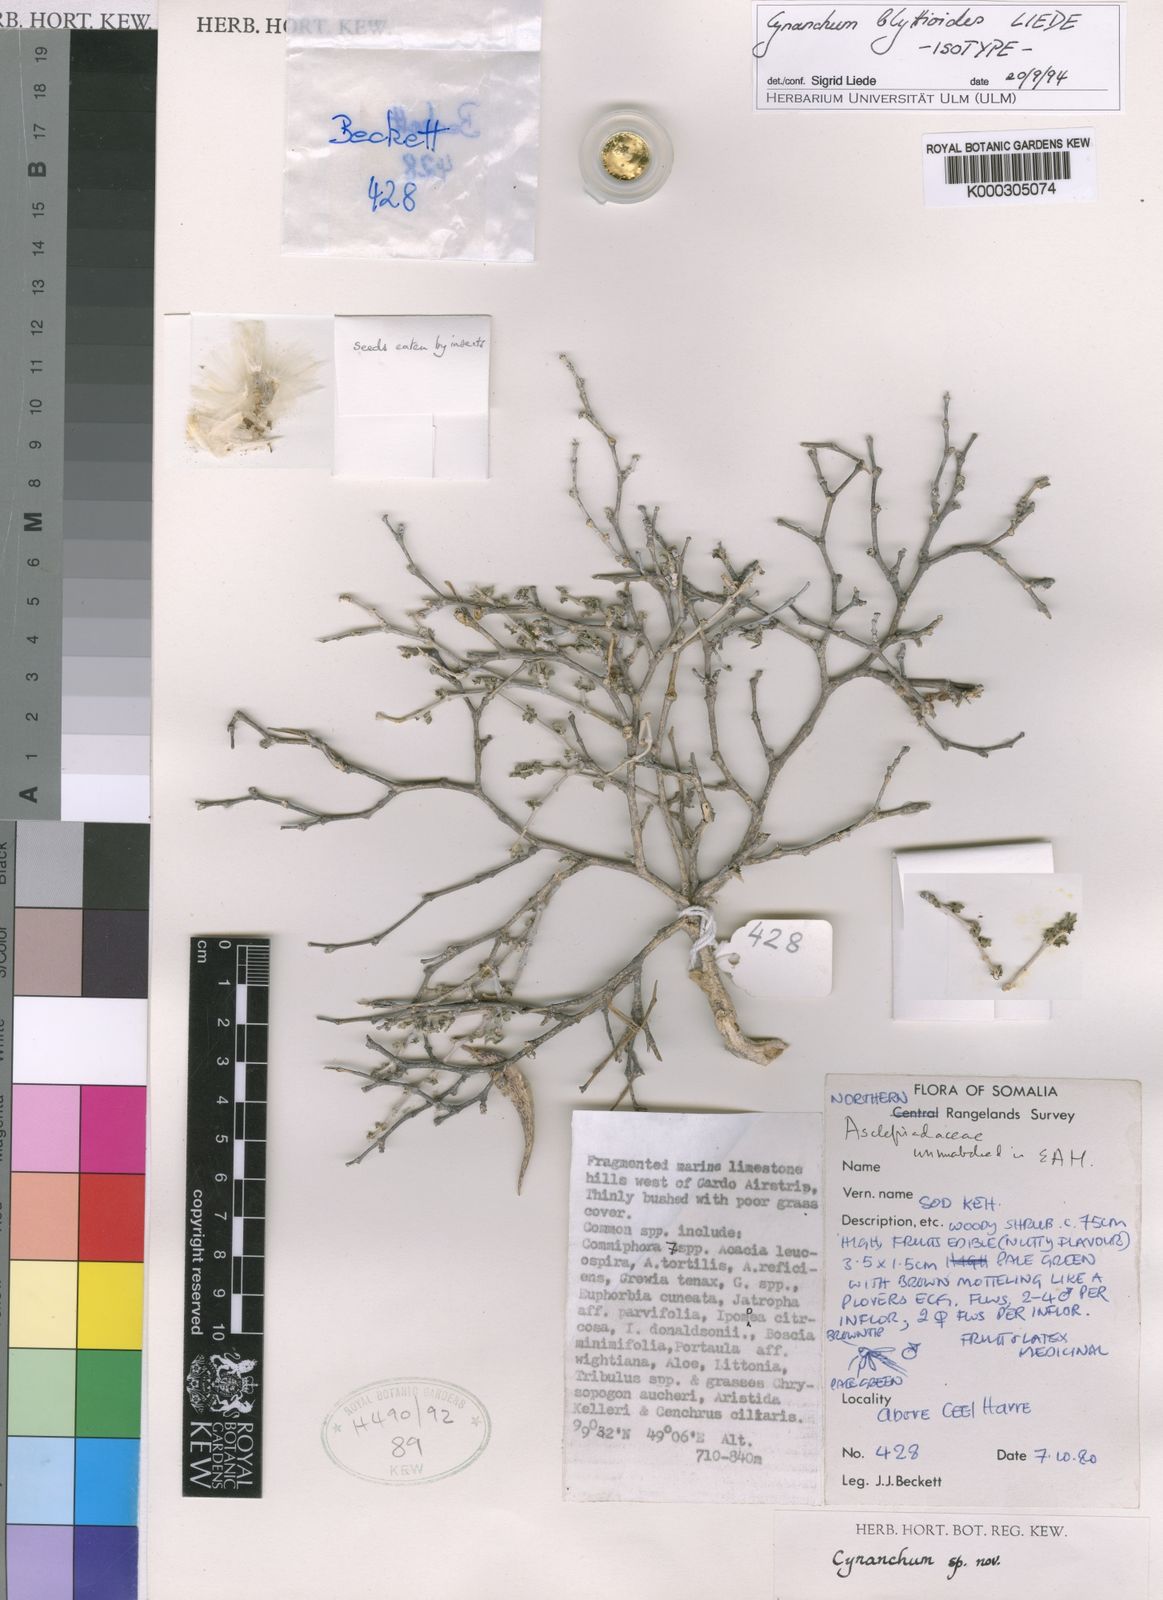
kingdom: Plantae
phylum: Tracheophyta
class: Magnoliopsida
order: Gentianales
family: Apocynaceae
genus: Cynanchum
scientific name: Cynanchum blyttioides
